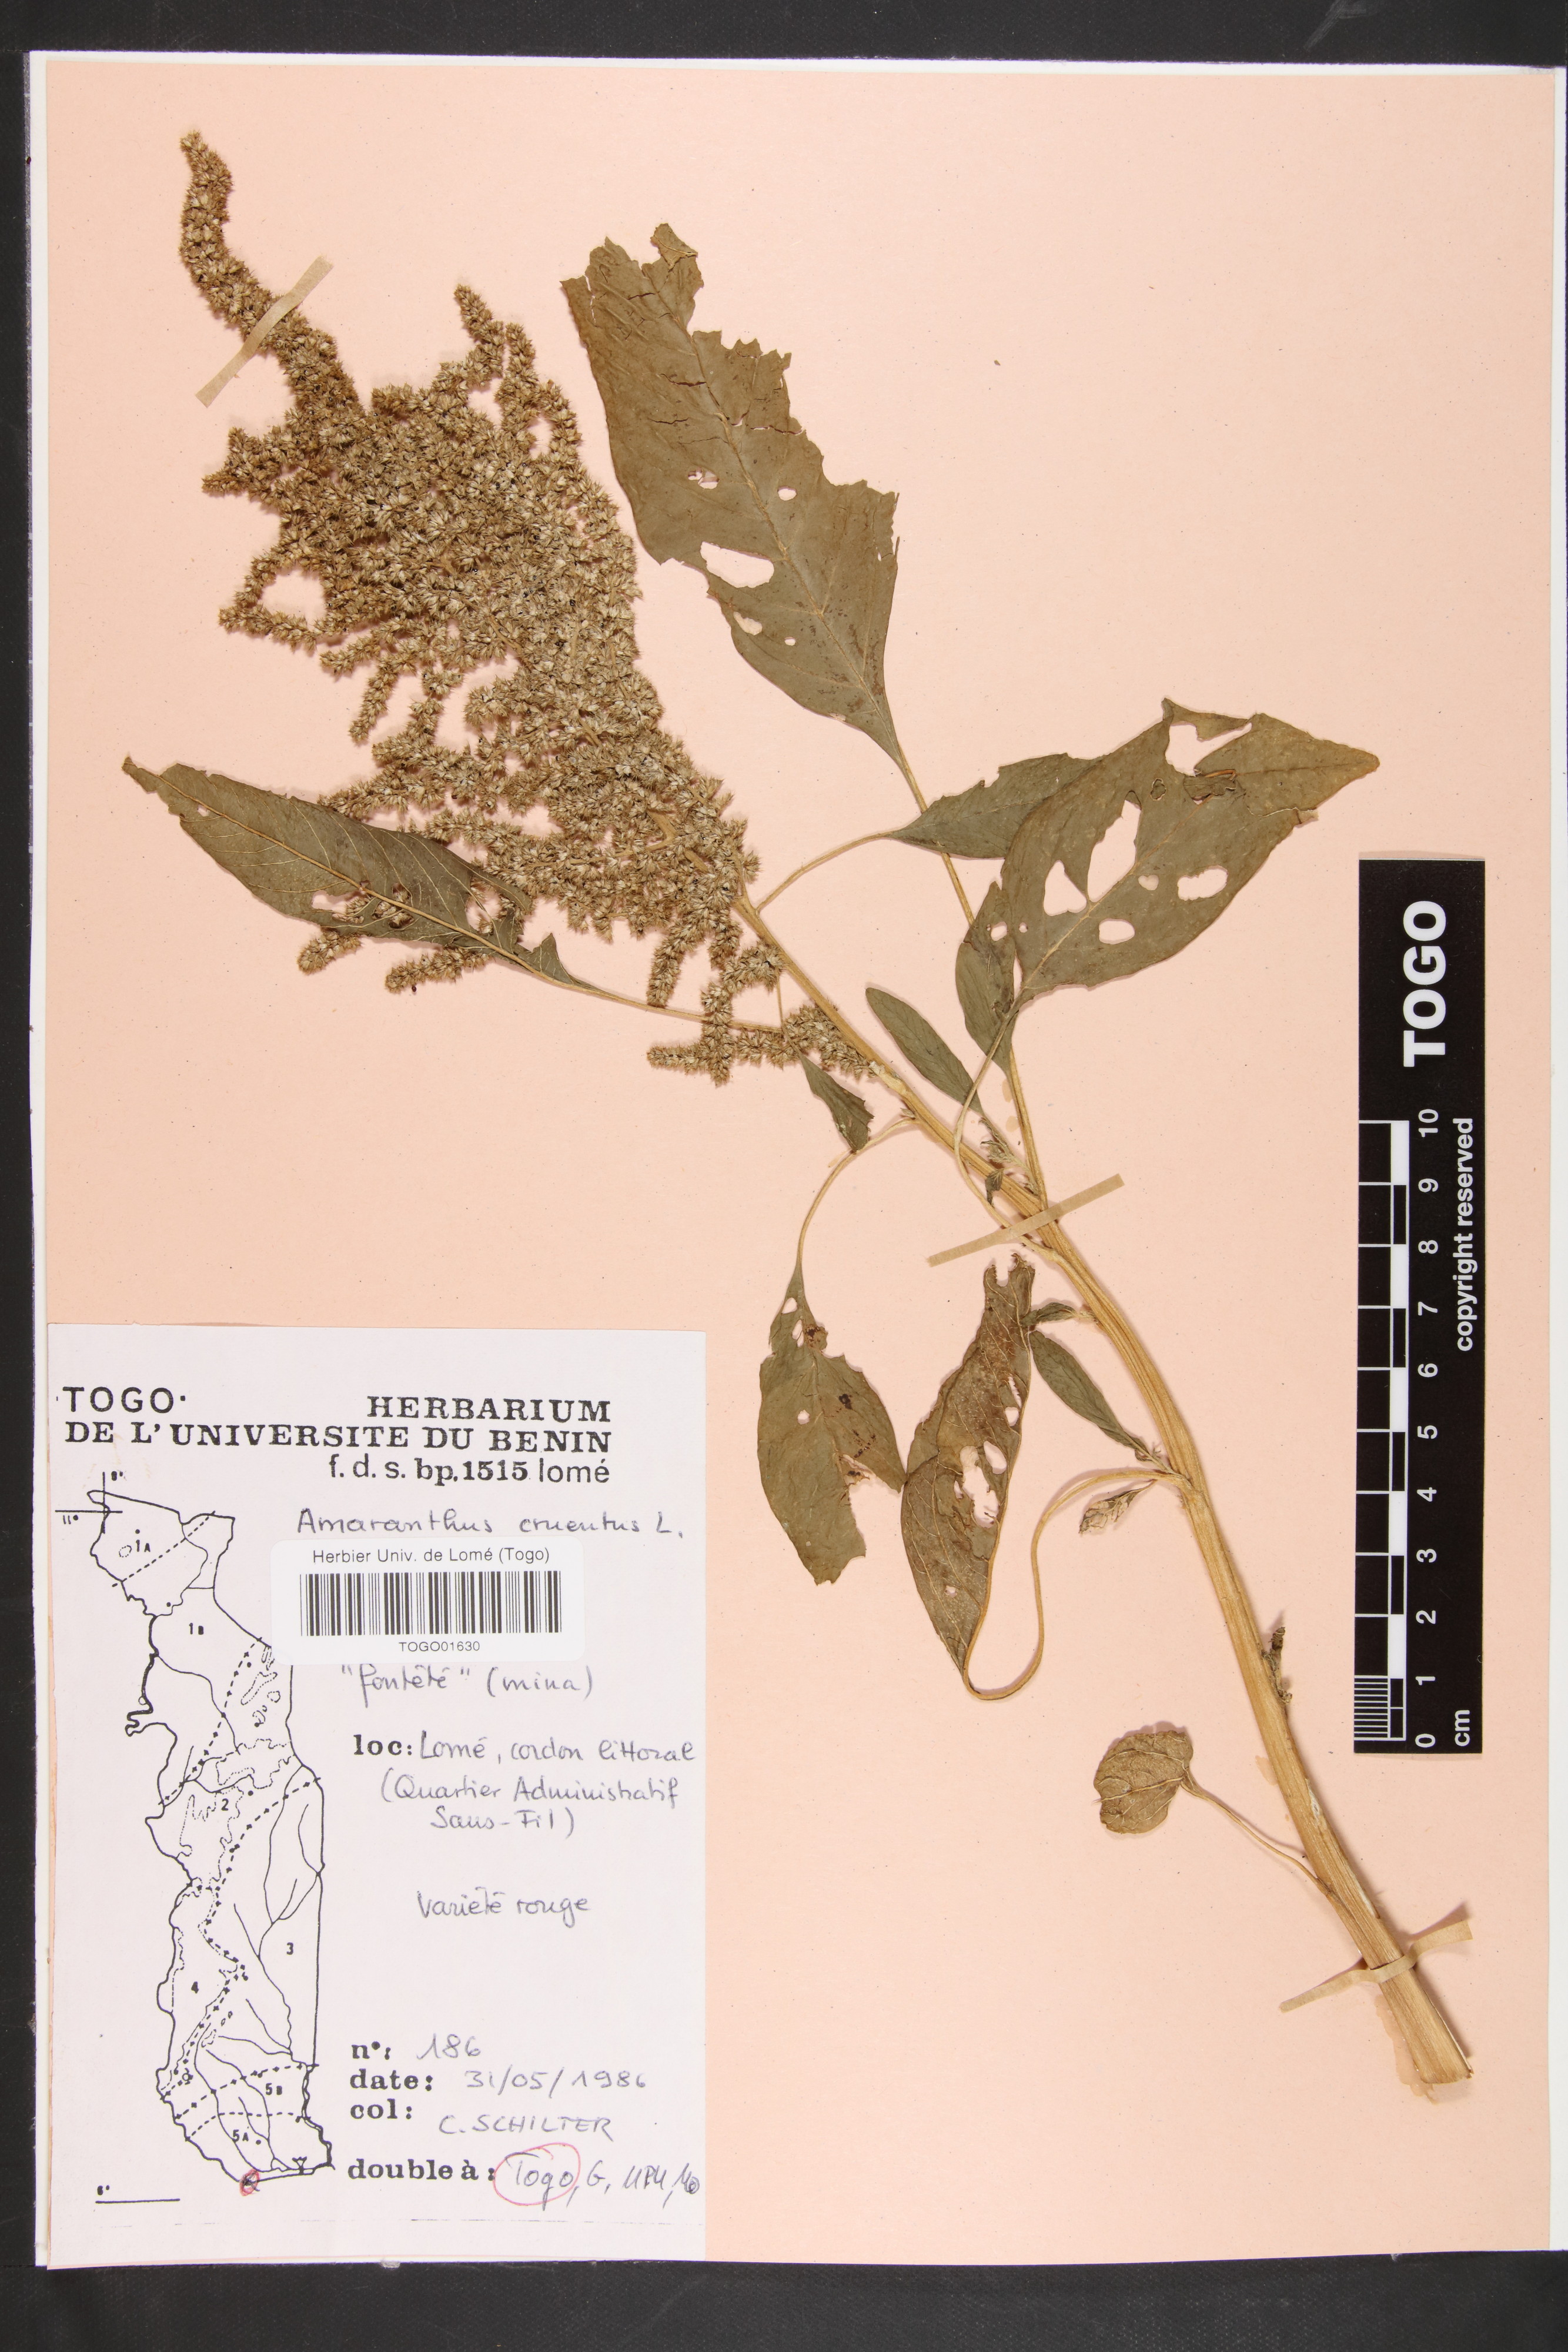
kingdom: Plantae
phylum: Tracheophyta
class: Magnoliopsida
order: Caryophyllales
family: Amaranthaceae
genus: Amaranthus
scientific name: Amaranthus cruentus
